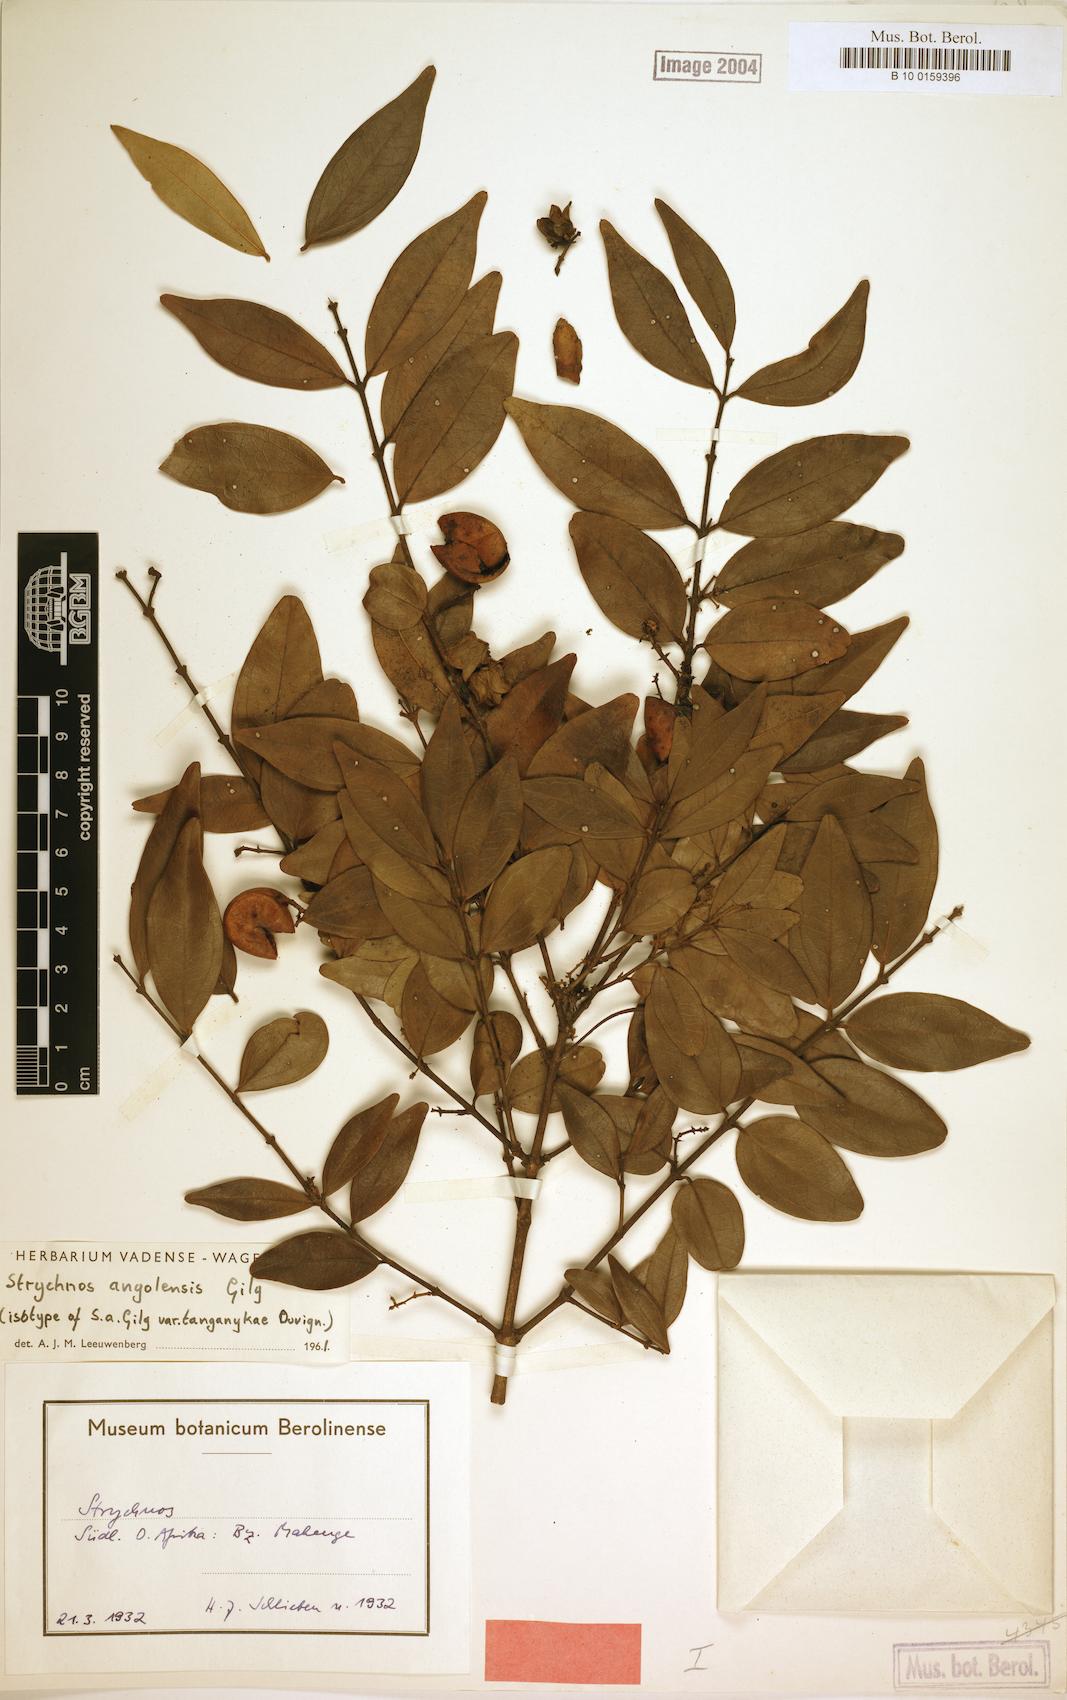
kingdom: Plantae
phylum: Tracheophyta
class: Magnoliopsida
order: Gentianales
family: Loganiaceae
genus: Strychnos
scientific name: Strychnos angolensis
